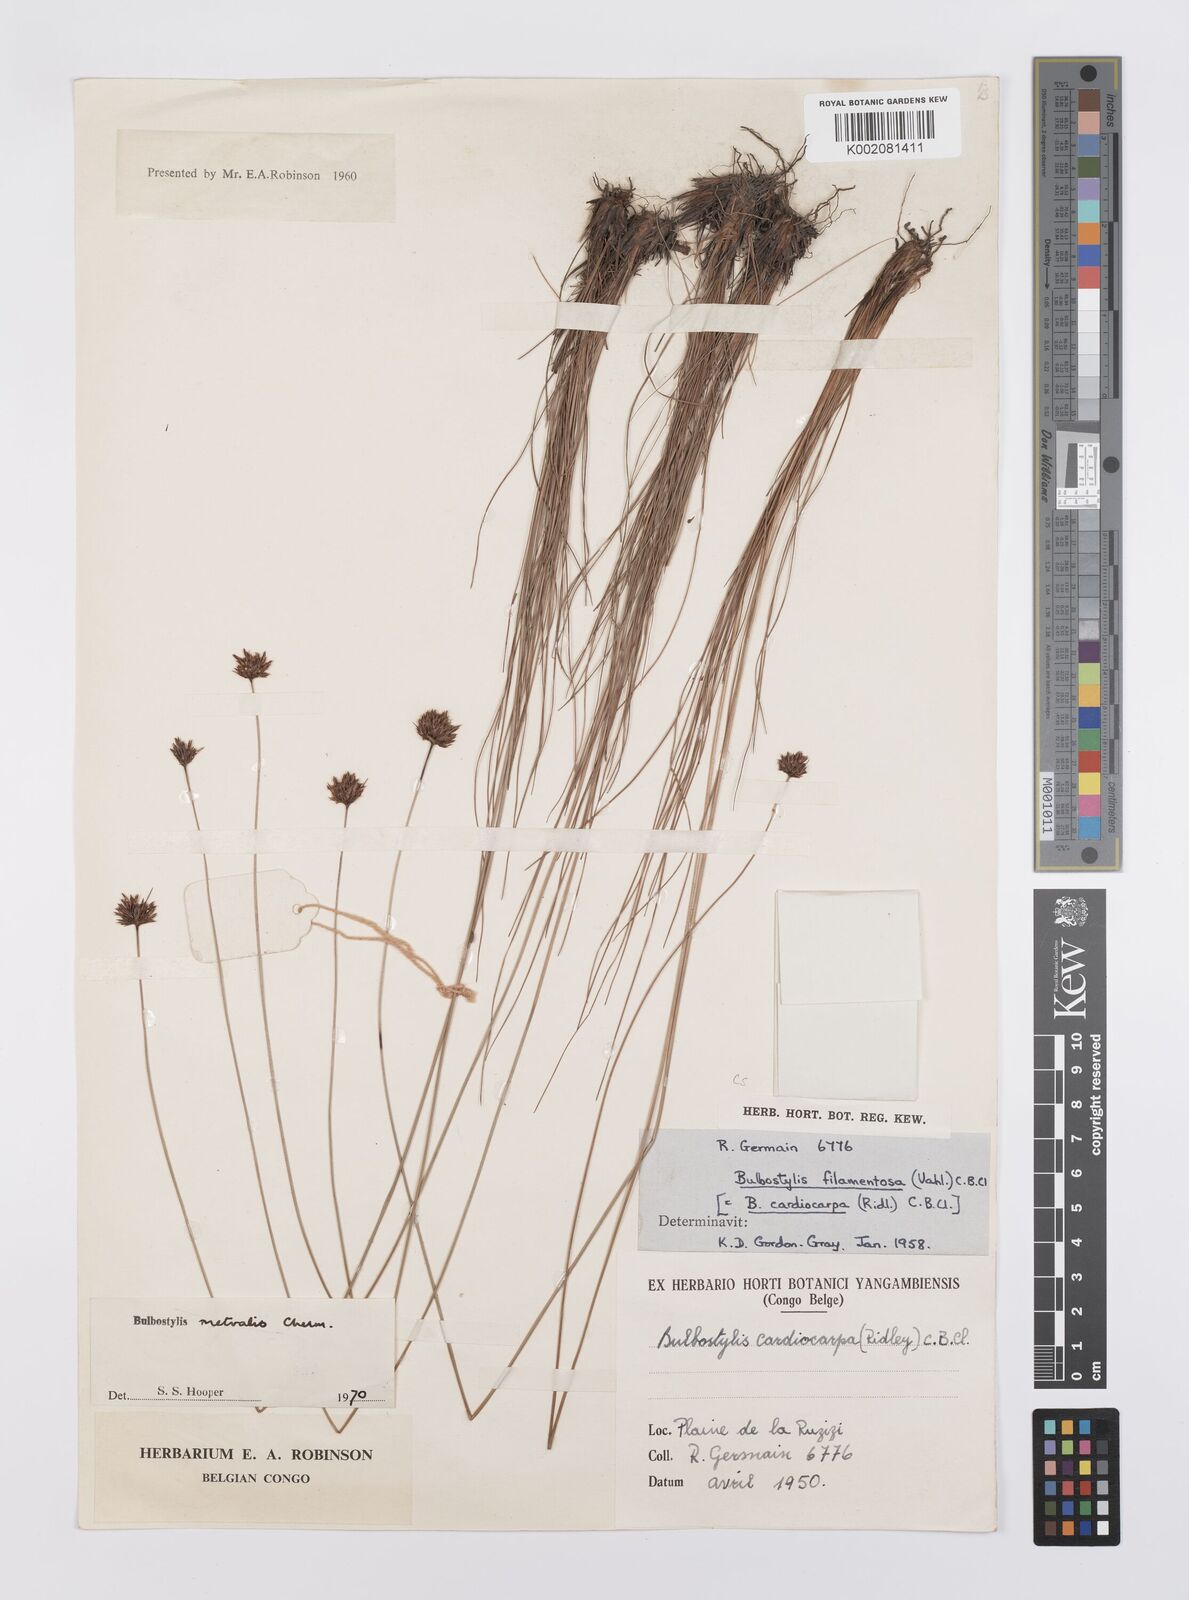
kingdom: Plantae
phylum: Tracheophyta
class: Liliopsida
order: Poales
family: Cyperaceae
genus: Bulbostylis
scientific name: Bulbostylis filamentosa
